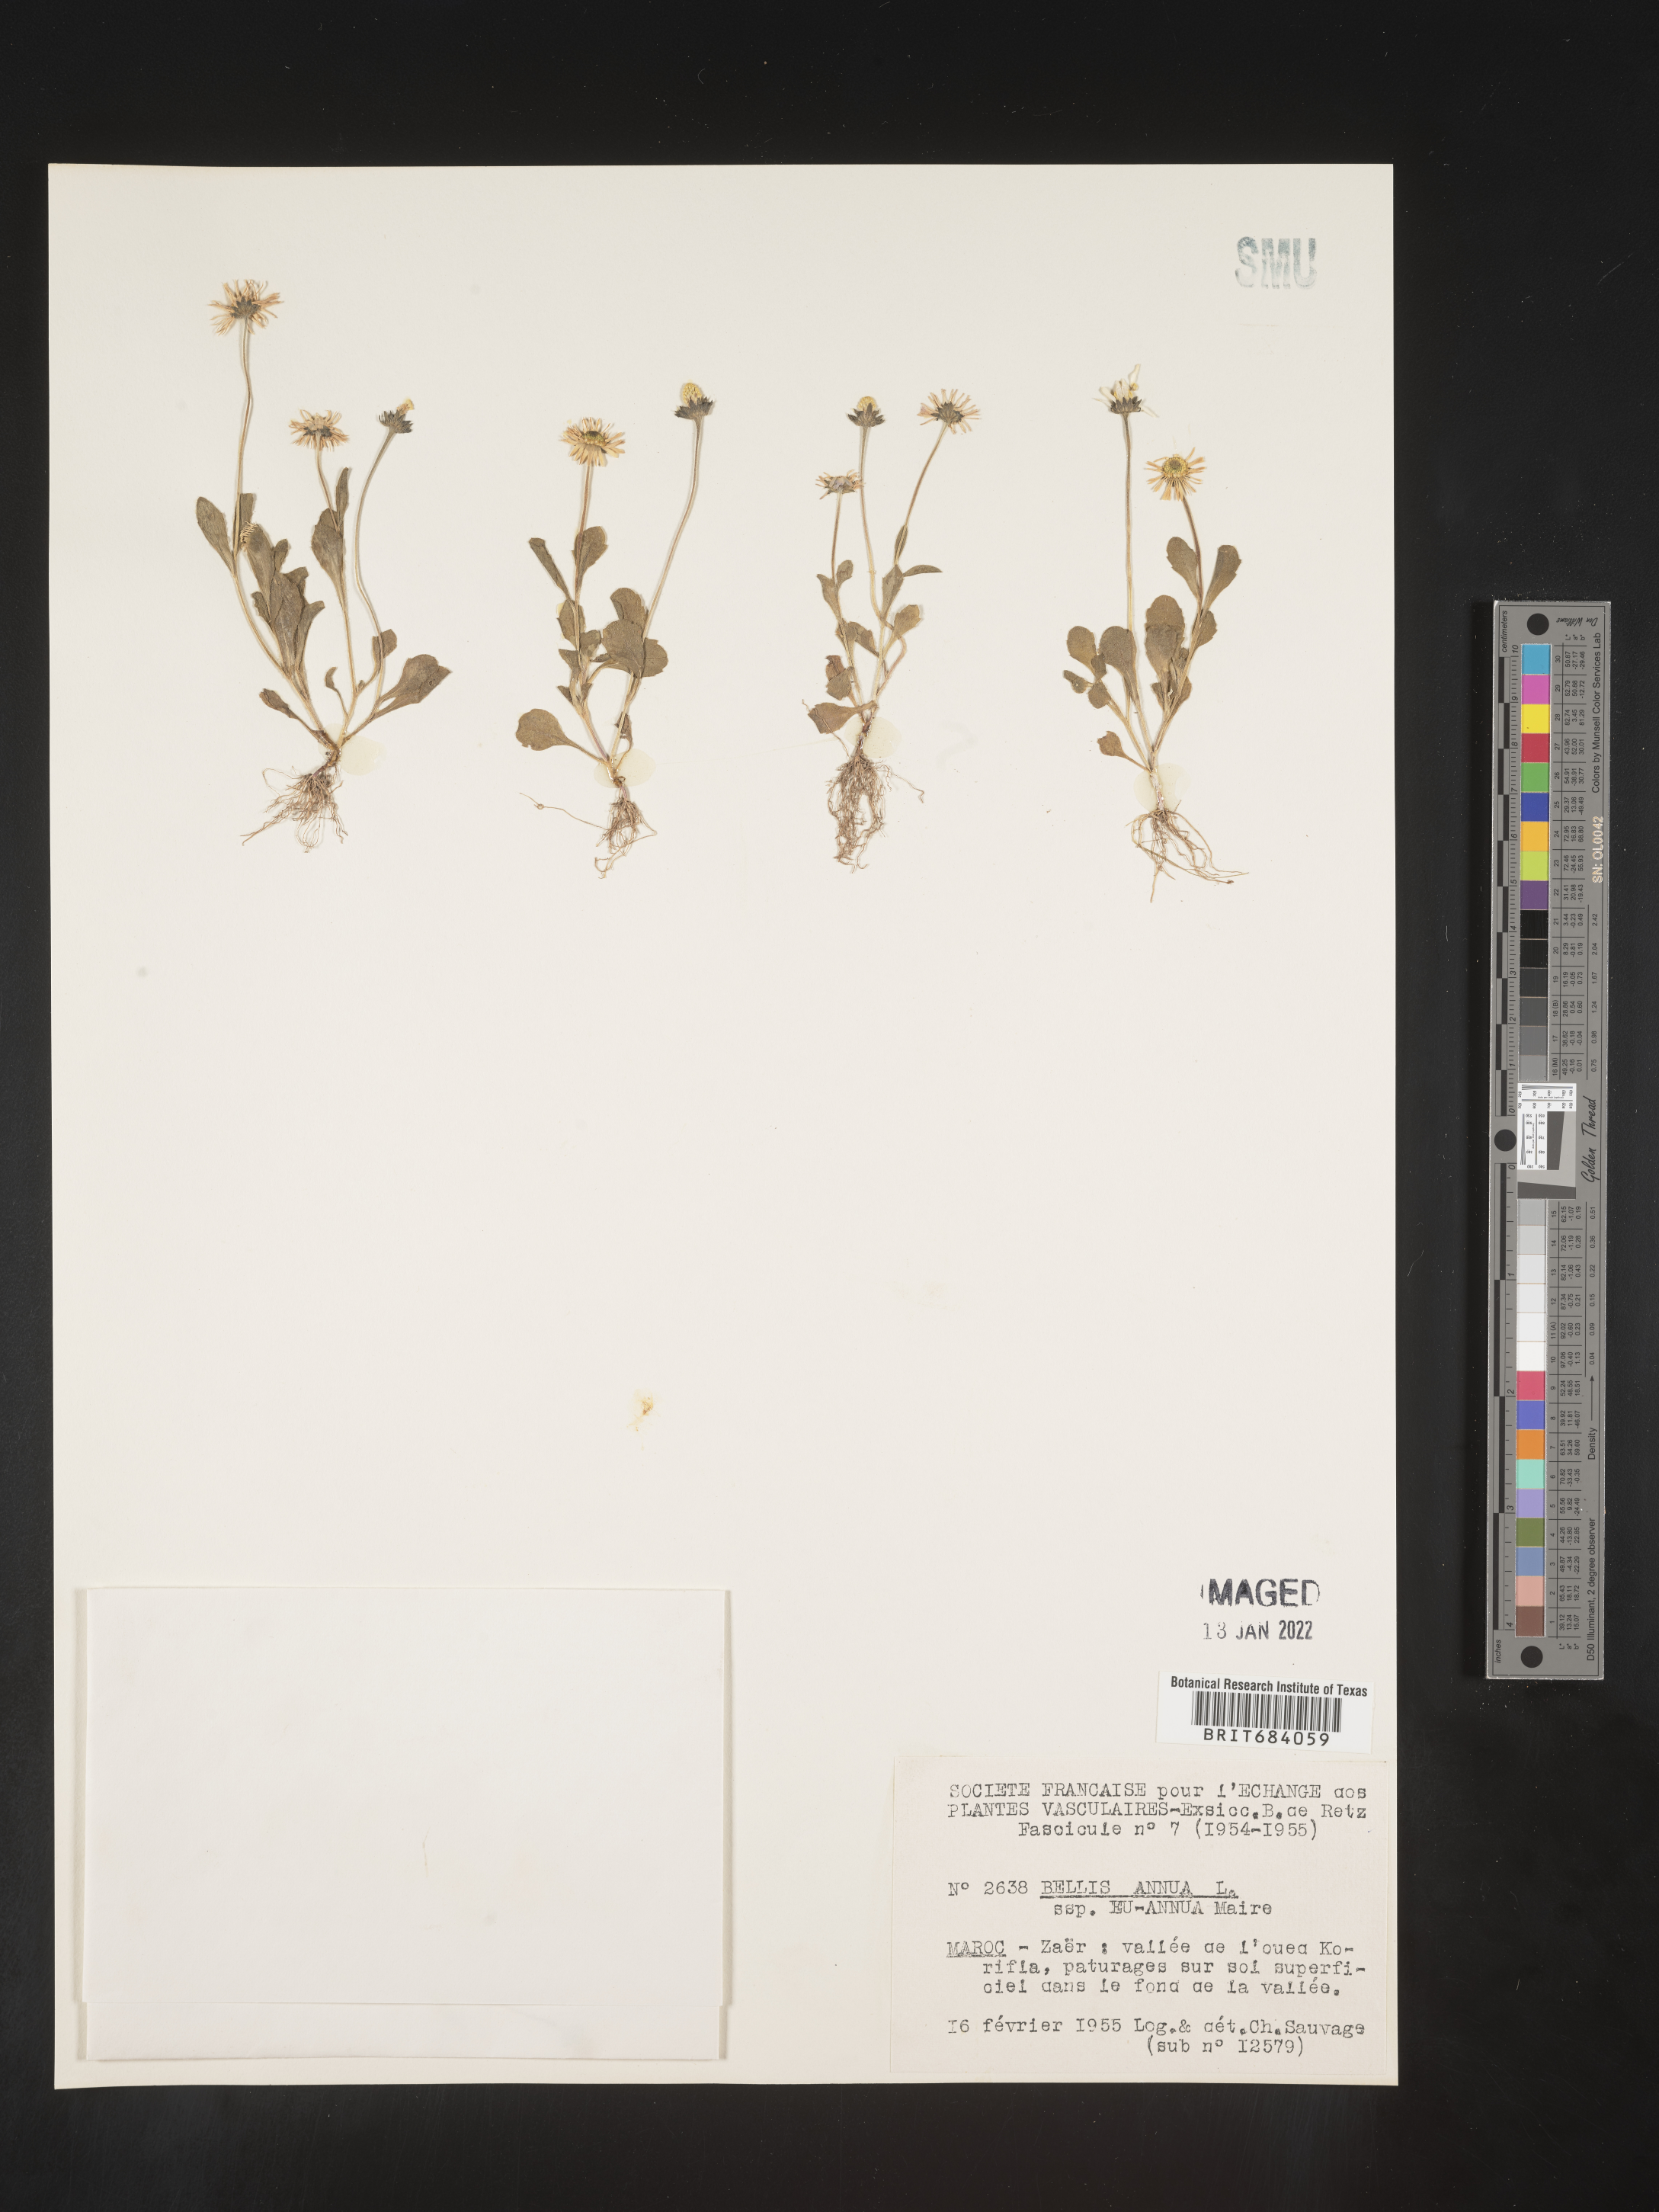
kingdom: Plantae
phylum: Tracheophyta
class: Magnoliopsida
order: Asterales
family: Asteraceae
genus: Bellis
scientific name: Bellis
